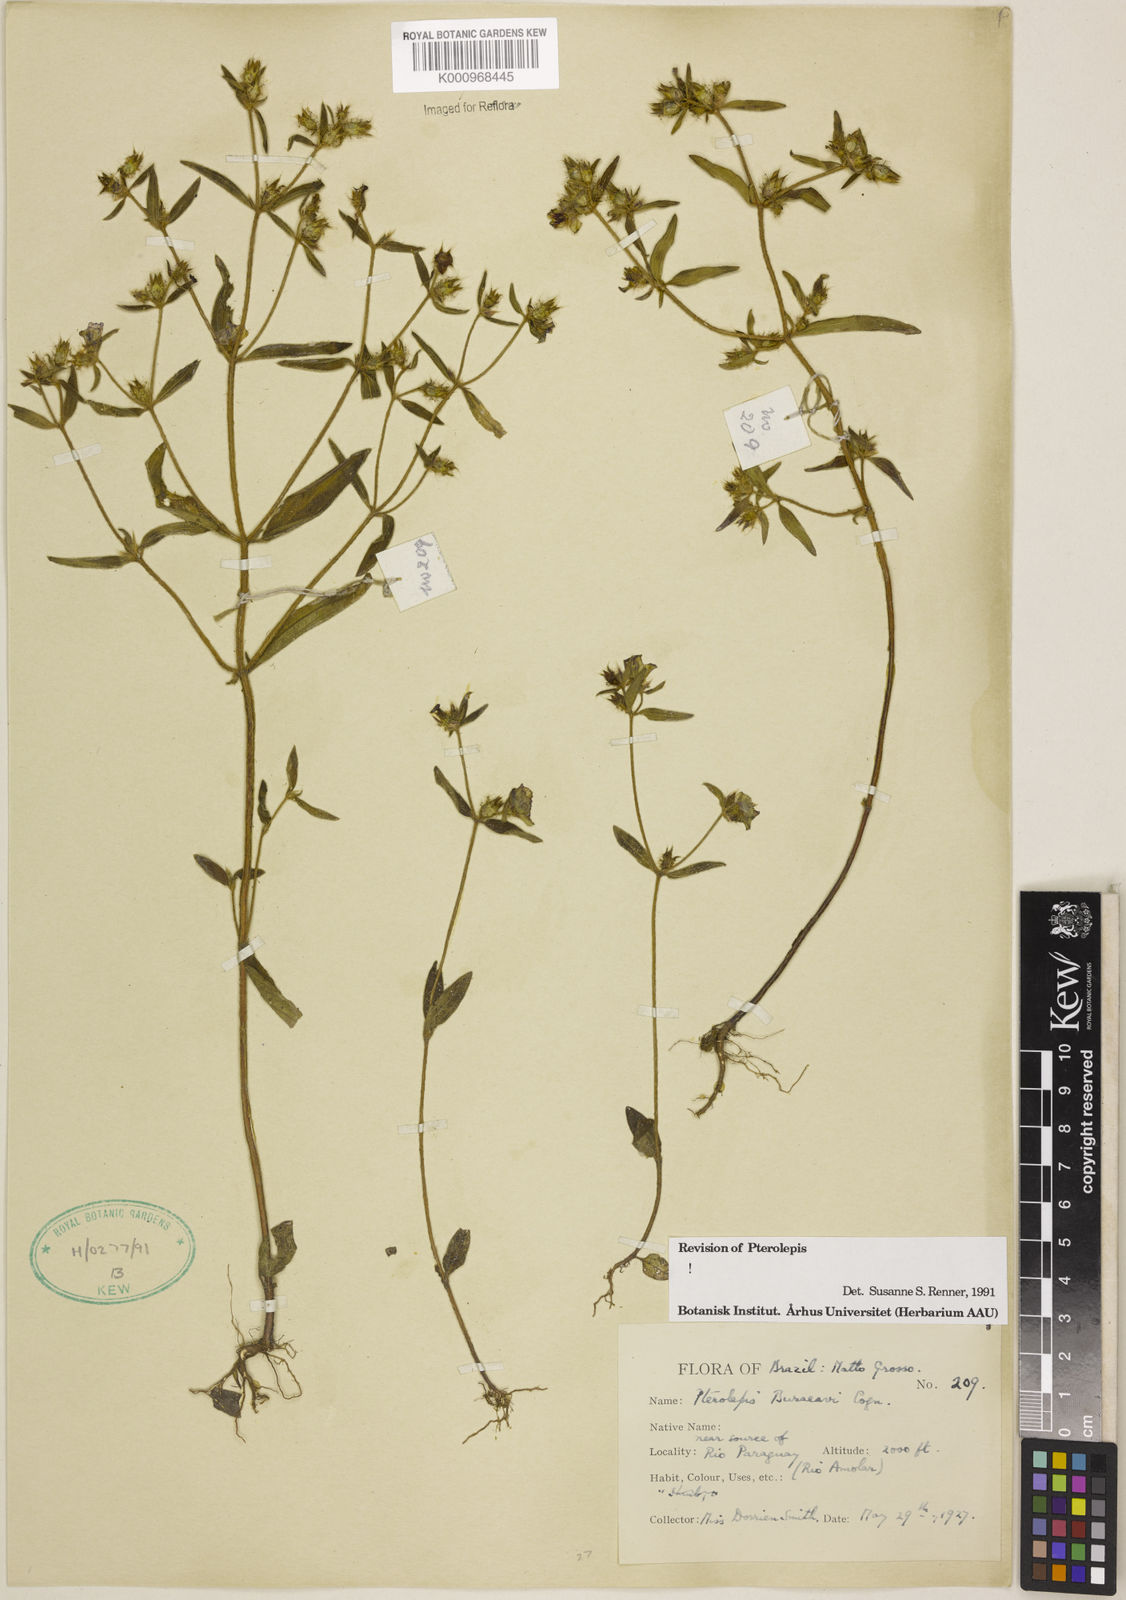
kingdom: Plantae
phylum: Tracheophyta
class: Magnoliopsida
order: Myrtales
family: Melastomataceae
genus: Pterolepis
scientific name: Pterolepis buraeavi
